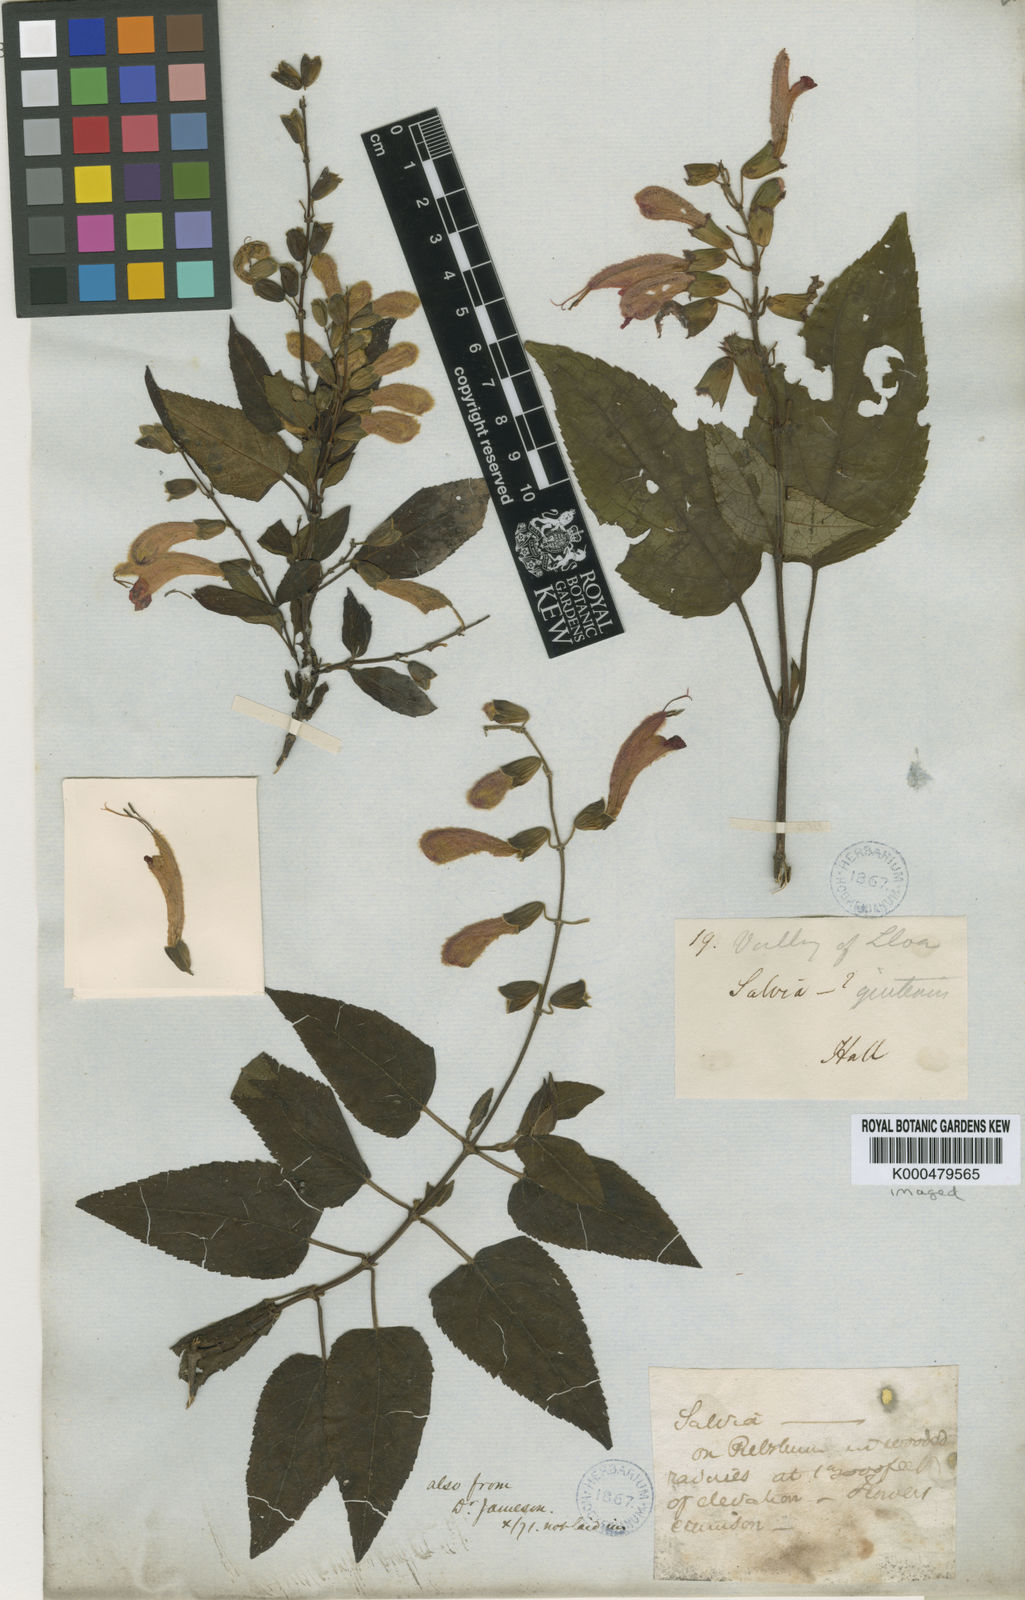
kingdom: Plantae
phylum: Tracheophyta
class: Magnoliopsida
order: Lamiales
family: Lamiaceae
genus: Salvia
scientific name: Salvia quitensis
